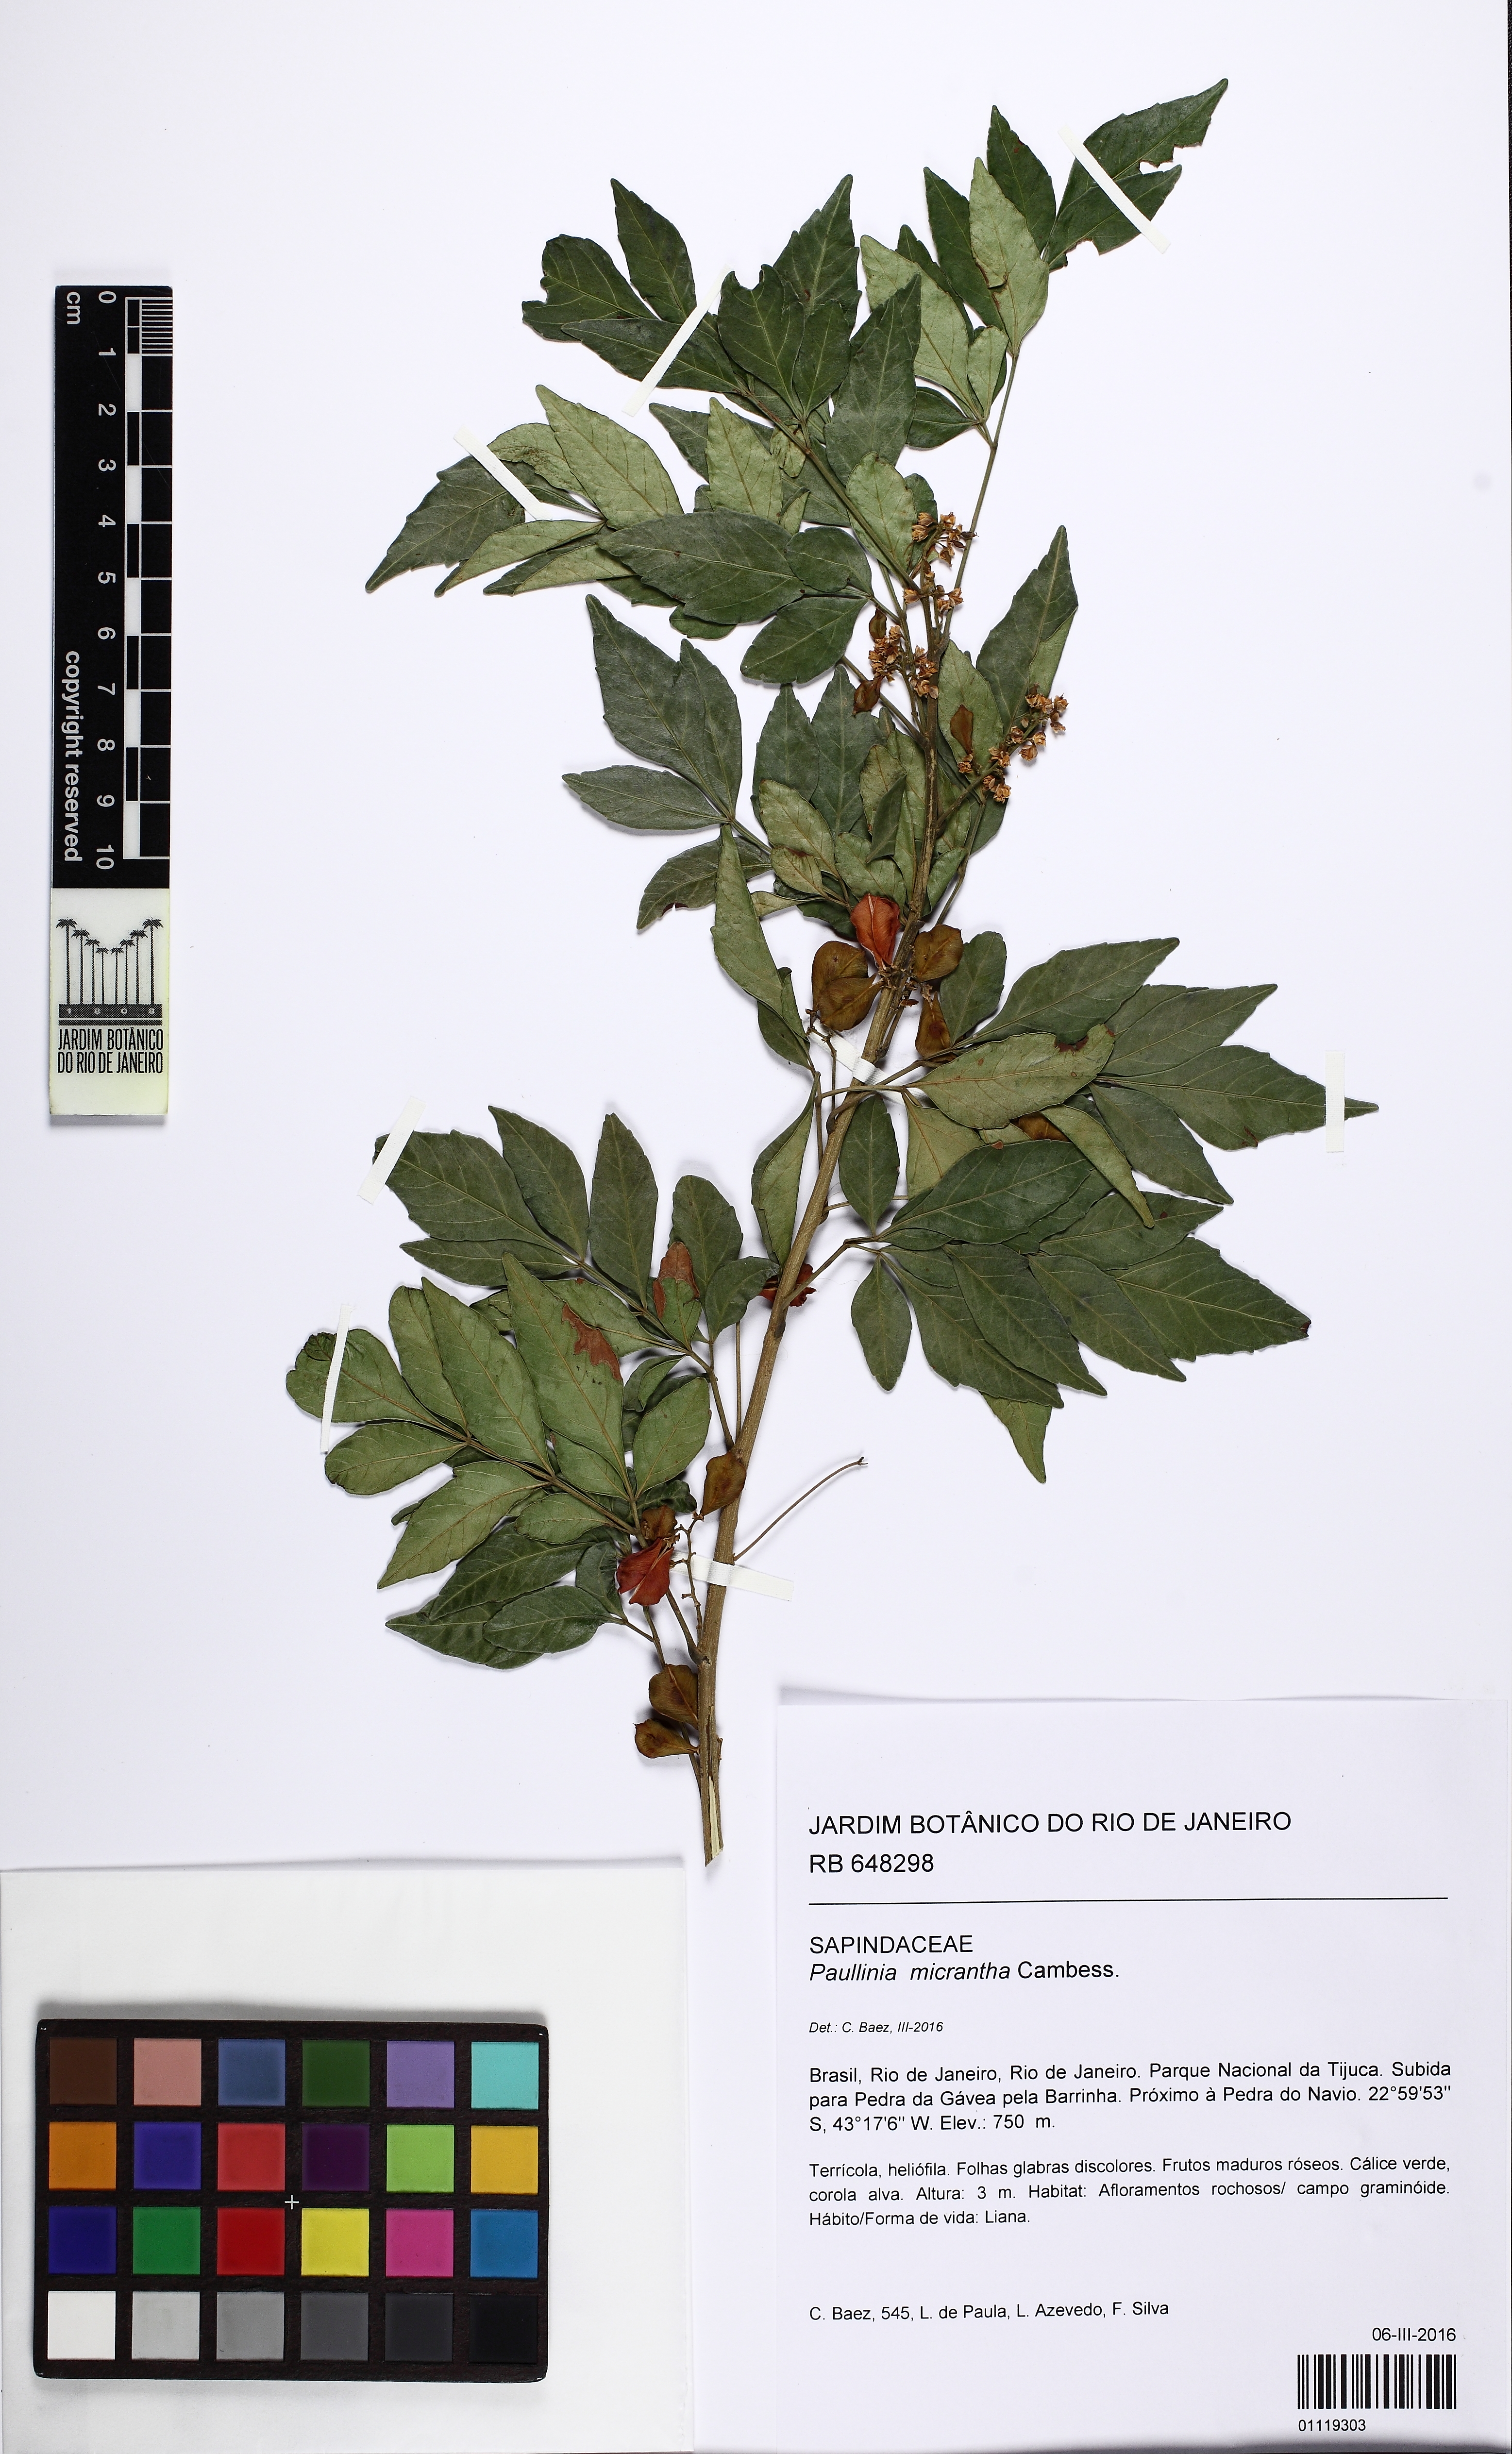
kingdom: Plantae
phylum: Tracheophyta
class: Magnoliopsida
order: Sapindales
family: Sapindaceae
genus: Paullinia
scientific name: Paullinia micrantha
